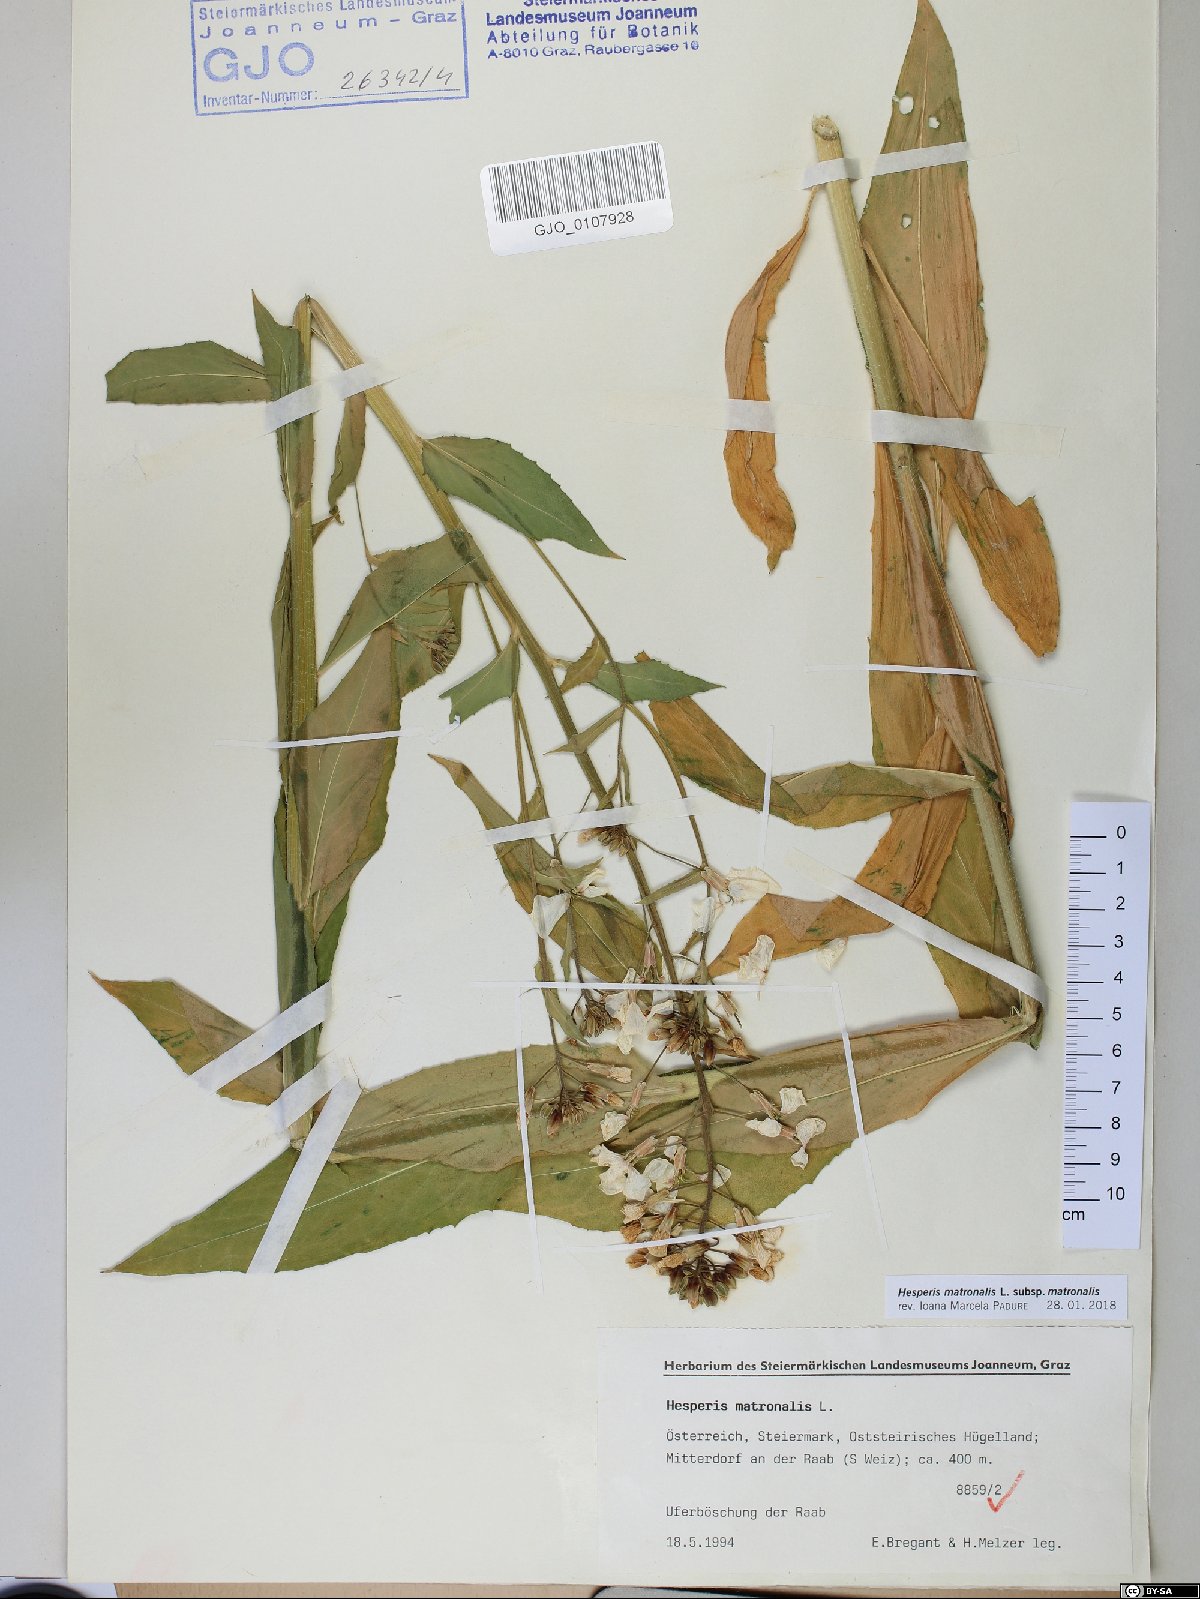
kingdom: Plantae
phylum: Tracheophyta
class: Magnoliopsida
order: Brassicales
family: Brassicaceae
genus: Hesperis
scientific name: Hesperis matronalis
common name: Dame's-violet
